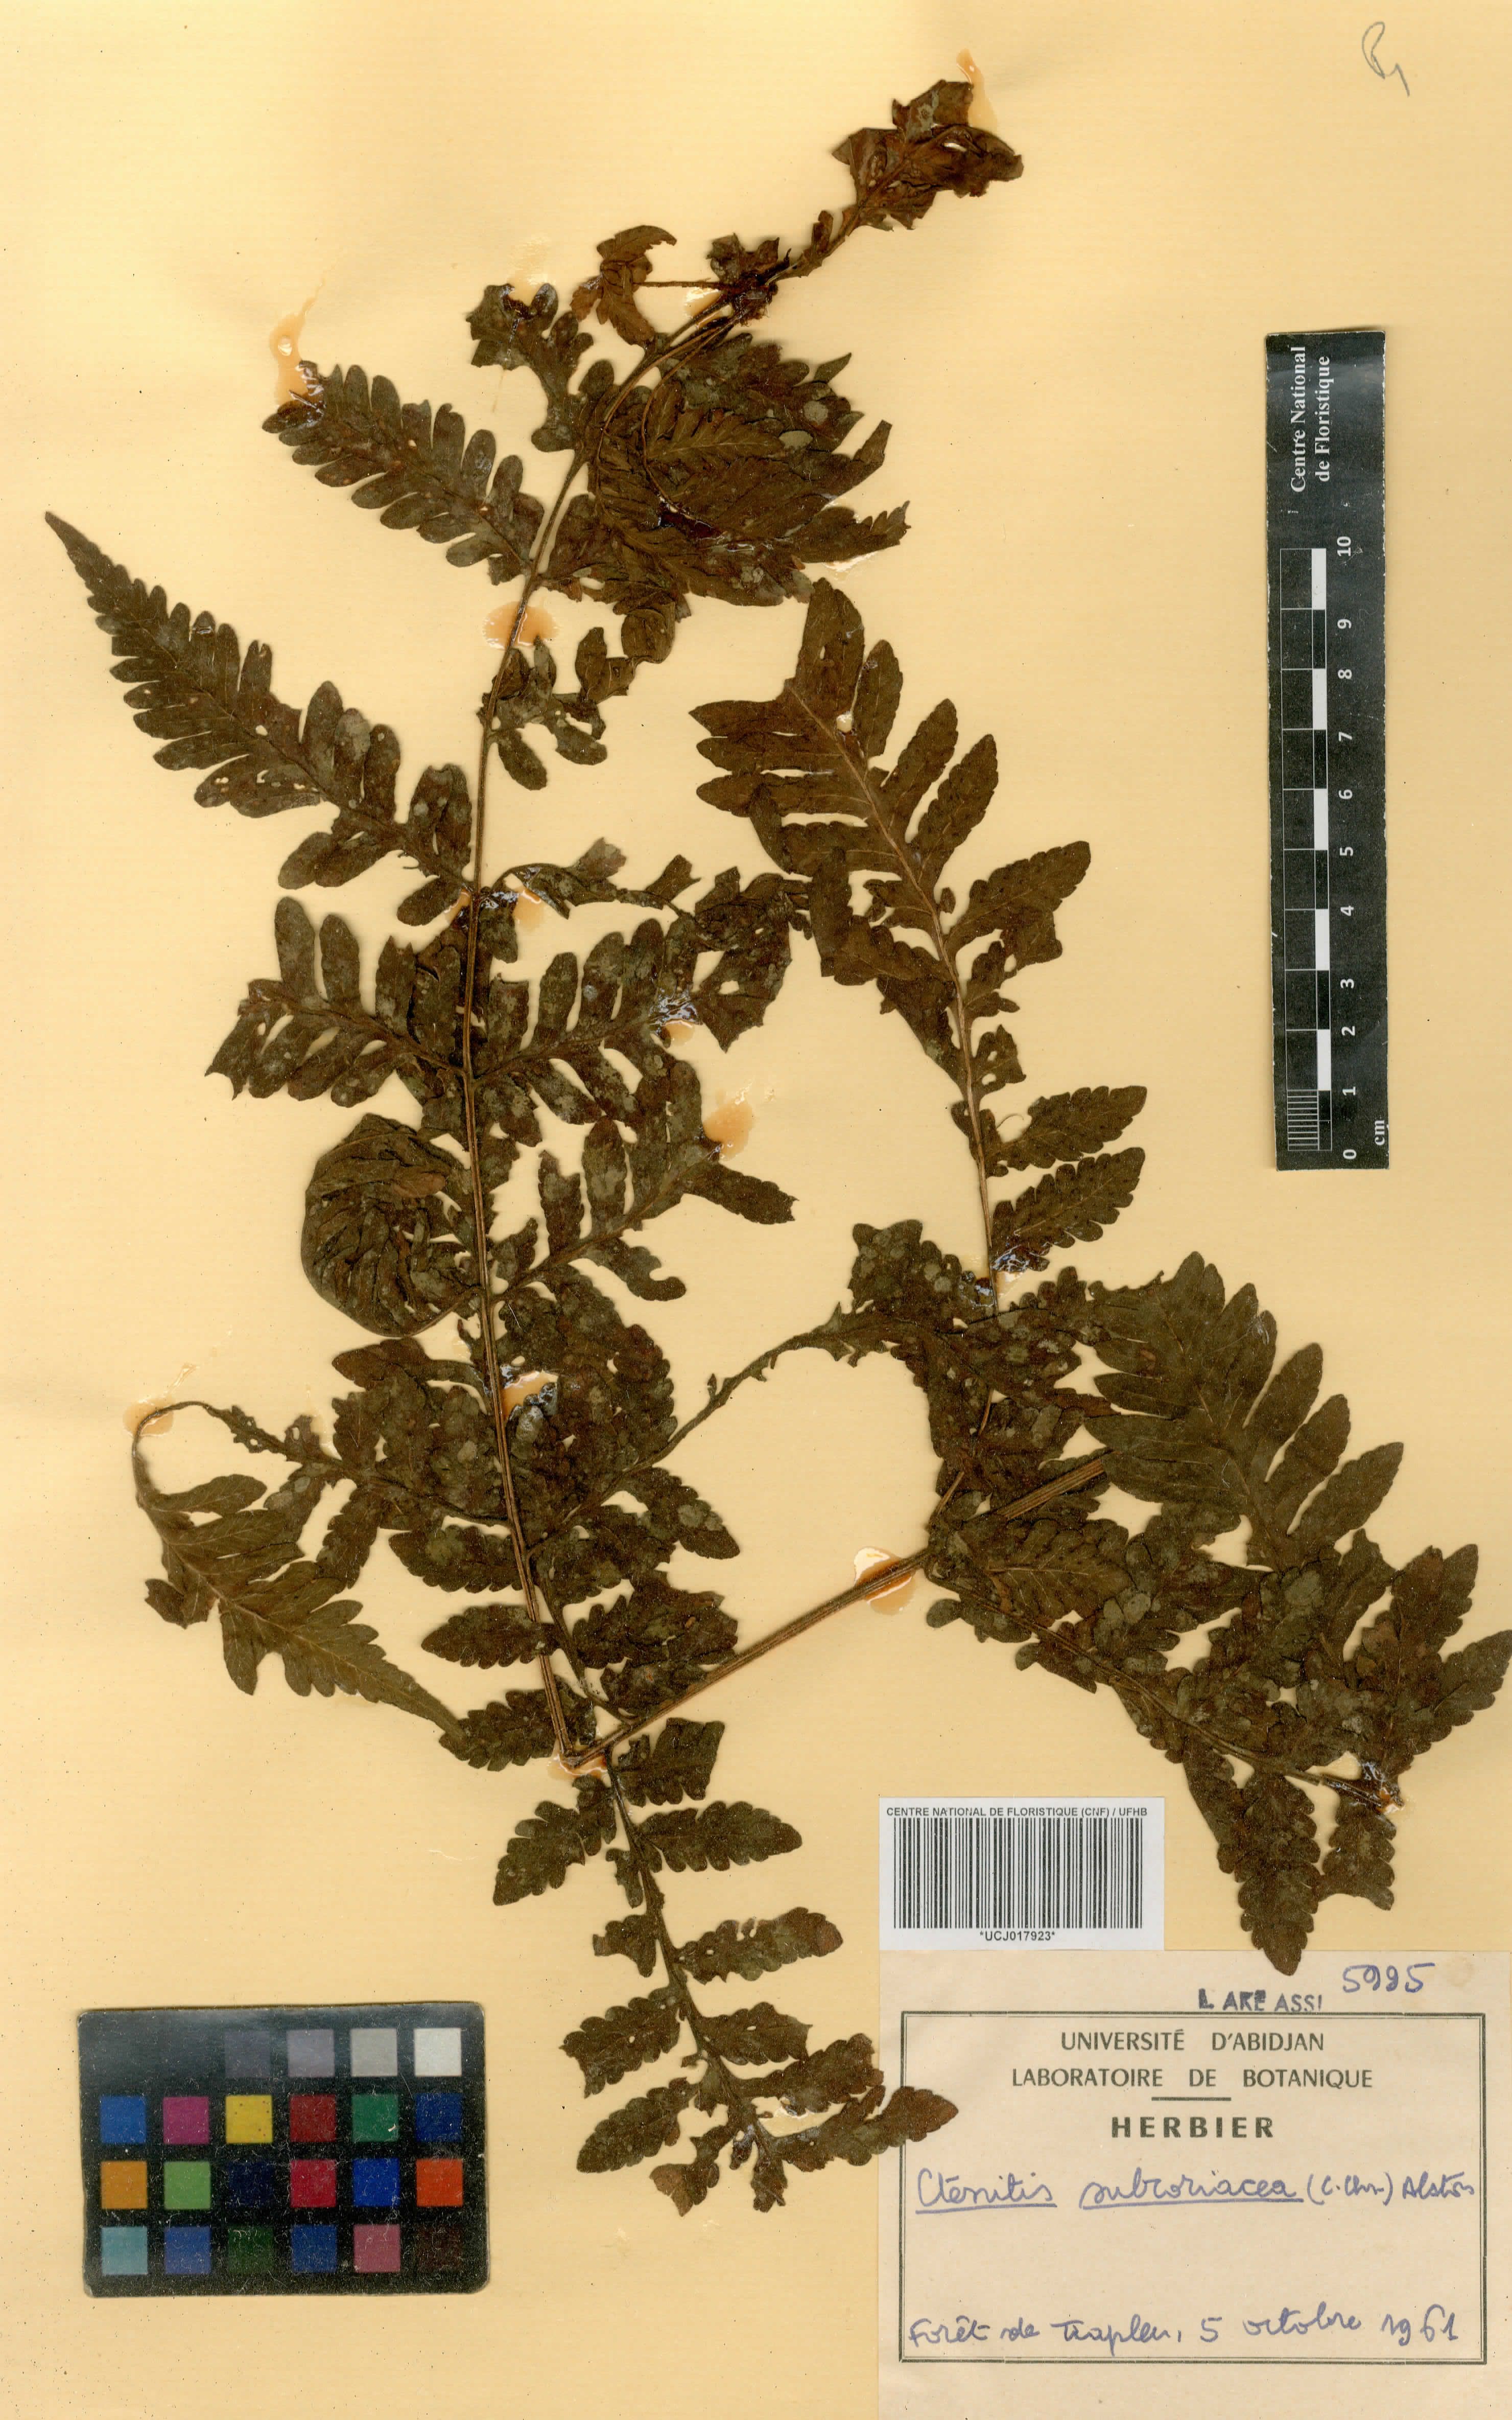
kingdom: Plantae
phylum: Tracheophyta
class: Polypodiopsida
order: Polypodiales
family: Dryopteridaceae
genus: Parapolystichum
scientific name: Parapolystichum vogelii
